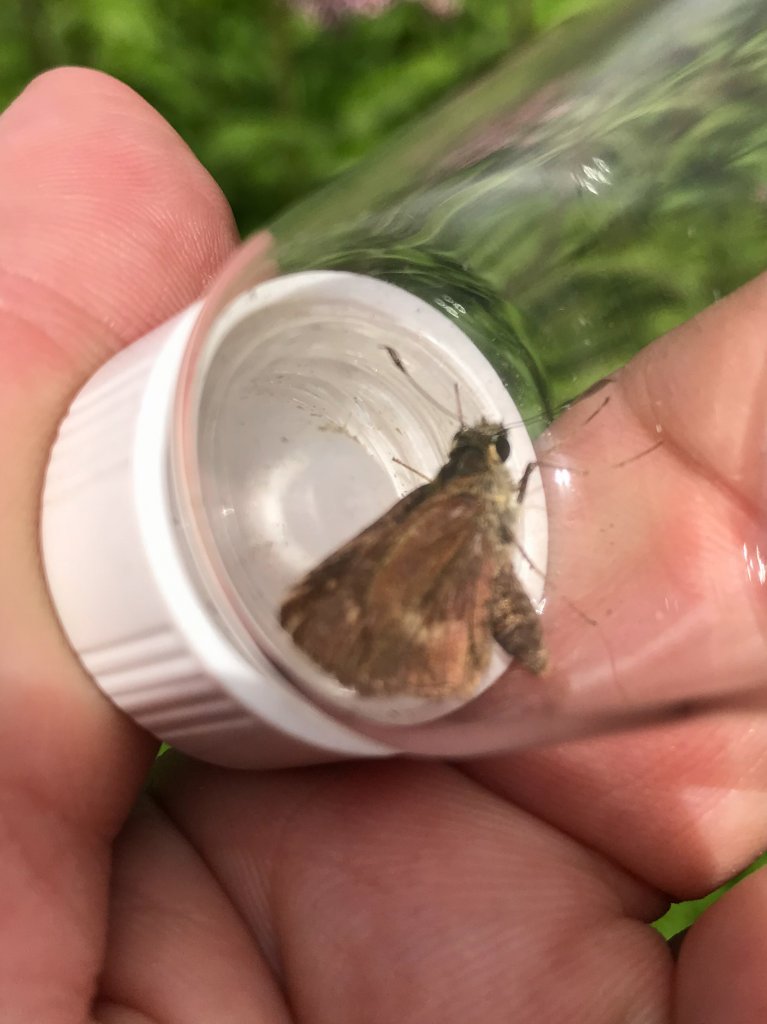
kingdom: Animalia
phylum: Arthropoda
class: Insecta
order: Lepidoptera
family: Hesperiidae
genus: Polites
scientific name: Polites egeremet
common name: Northern Broken-Dash
